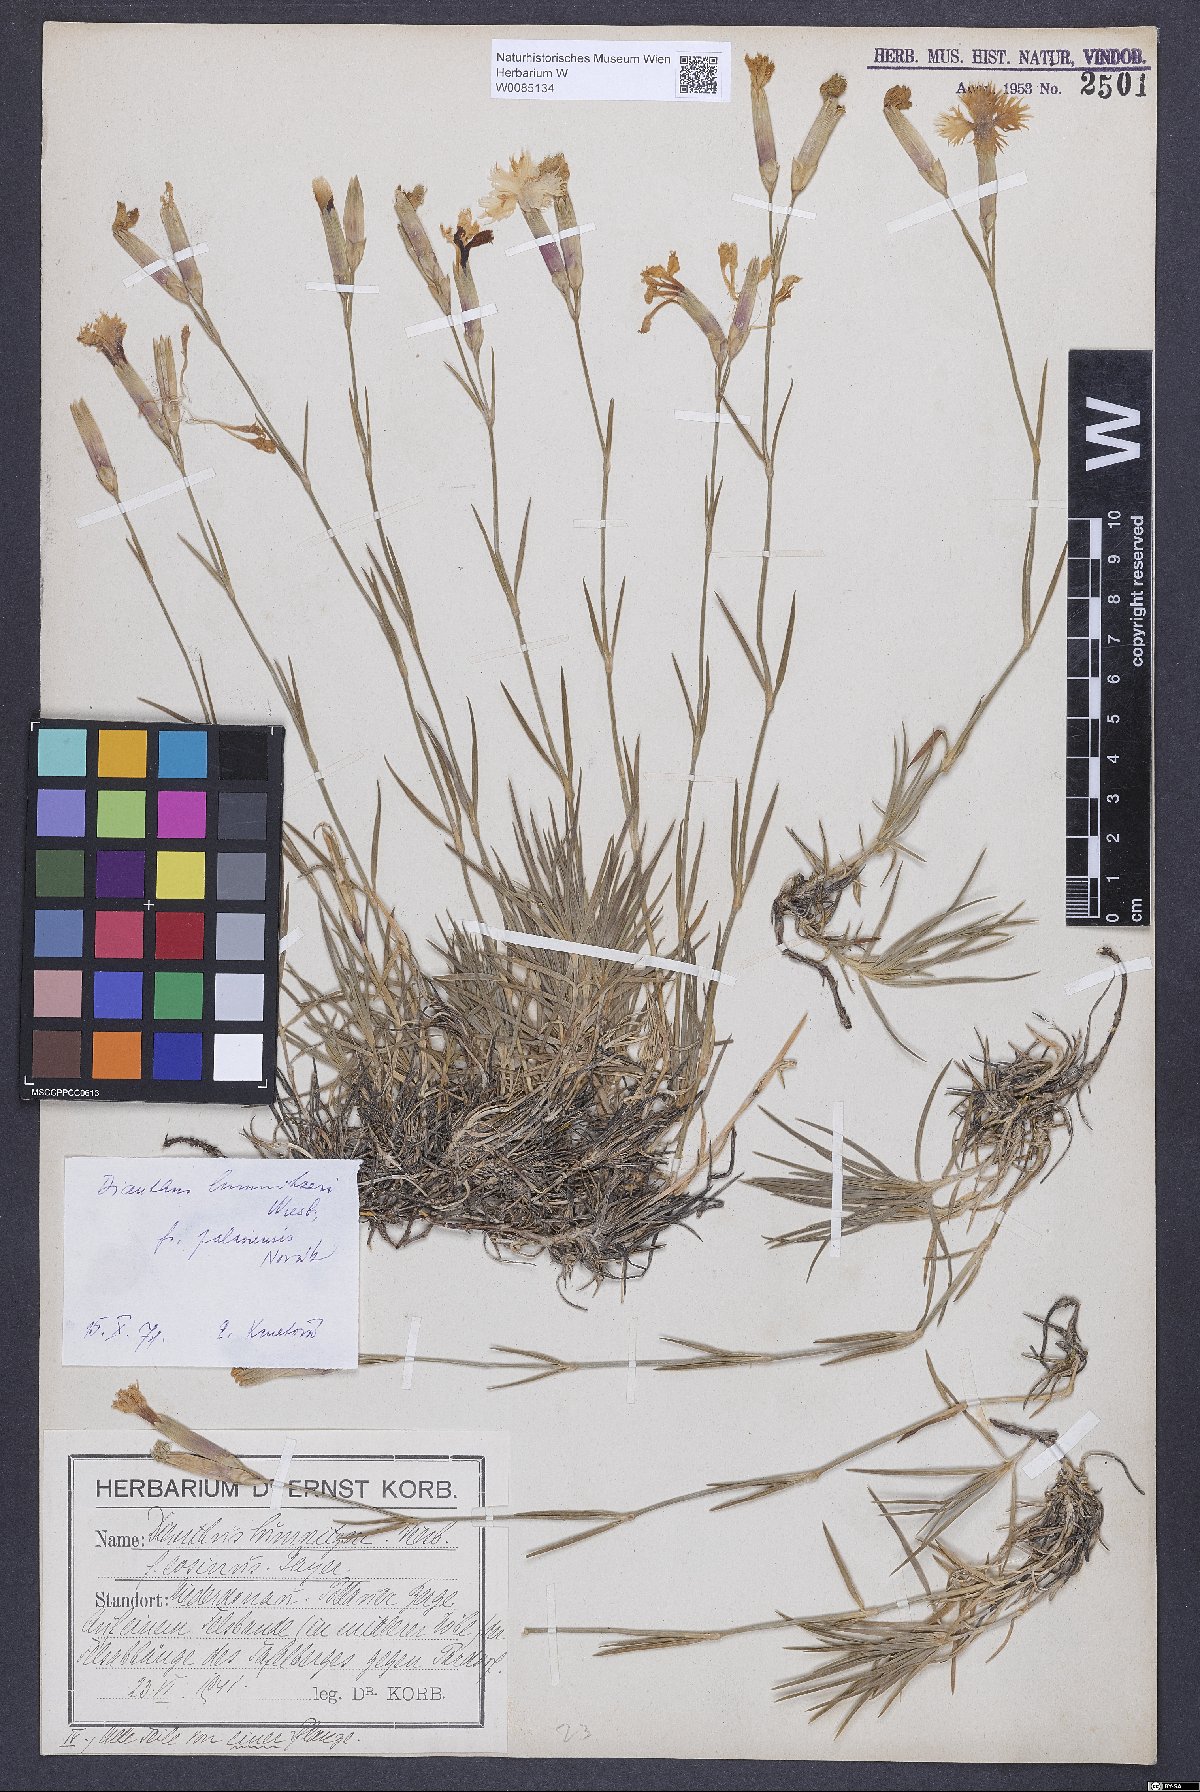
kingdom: Plantae
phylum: Tracheophyta
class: Magnoliopsida
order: Caryophyllales
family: Caryophyllaceae
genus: Dianthus
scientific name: Dianthus praecox
